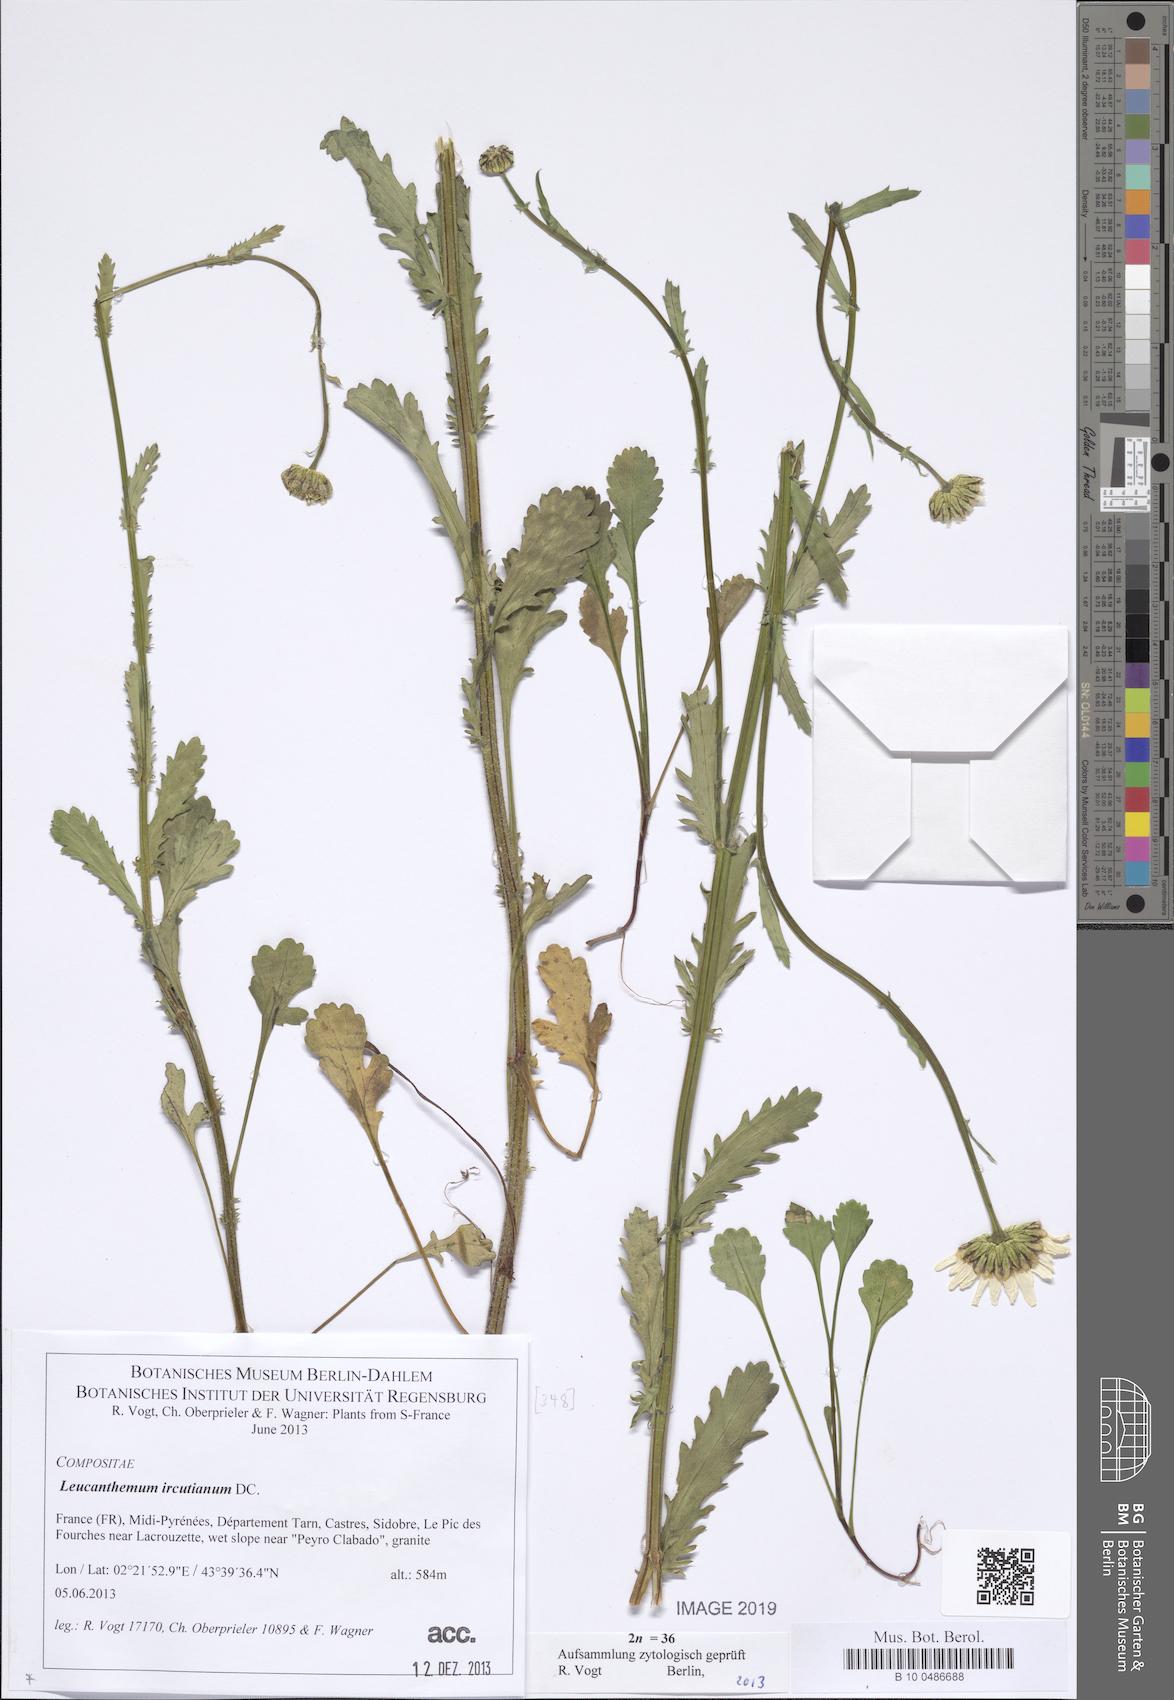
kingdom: Plantae
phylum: Tracheophyta
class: Magnoliopsida
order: Asterales
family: Asteraceae
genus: Leucanthemum
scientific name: Leucanthemum ircutianum
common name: Daisy
